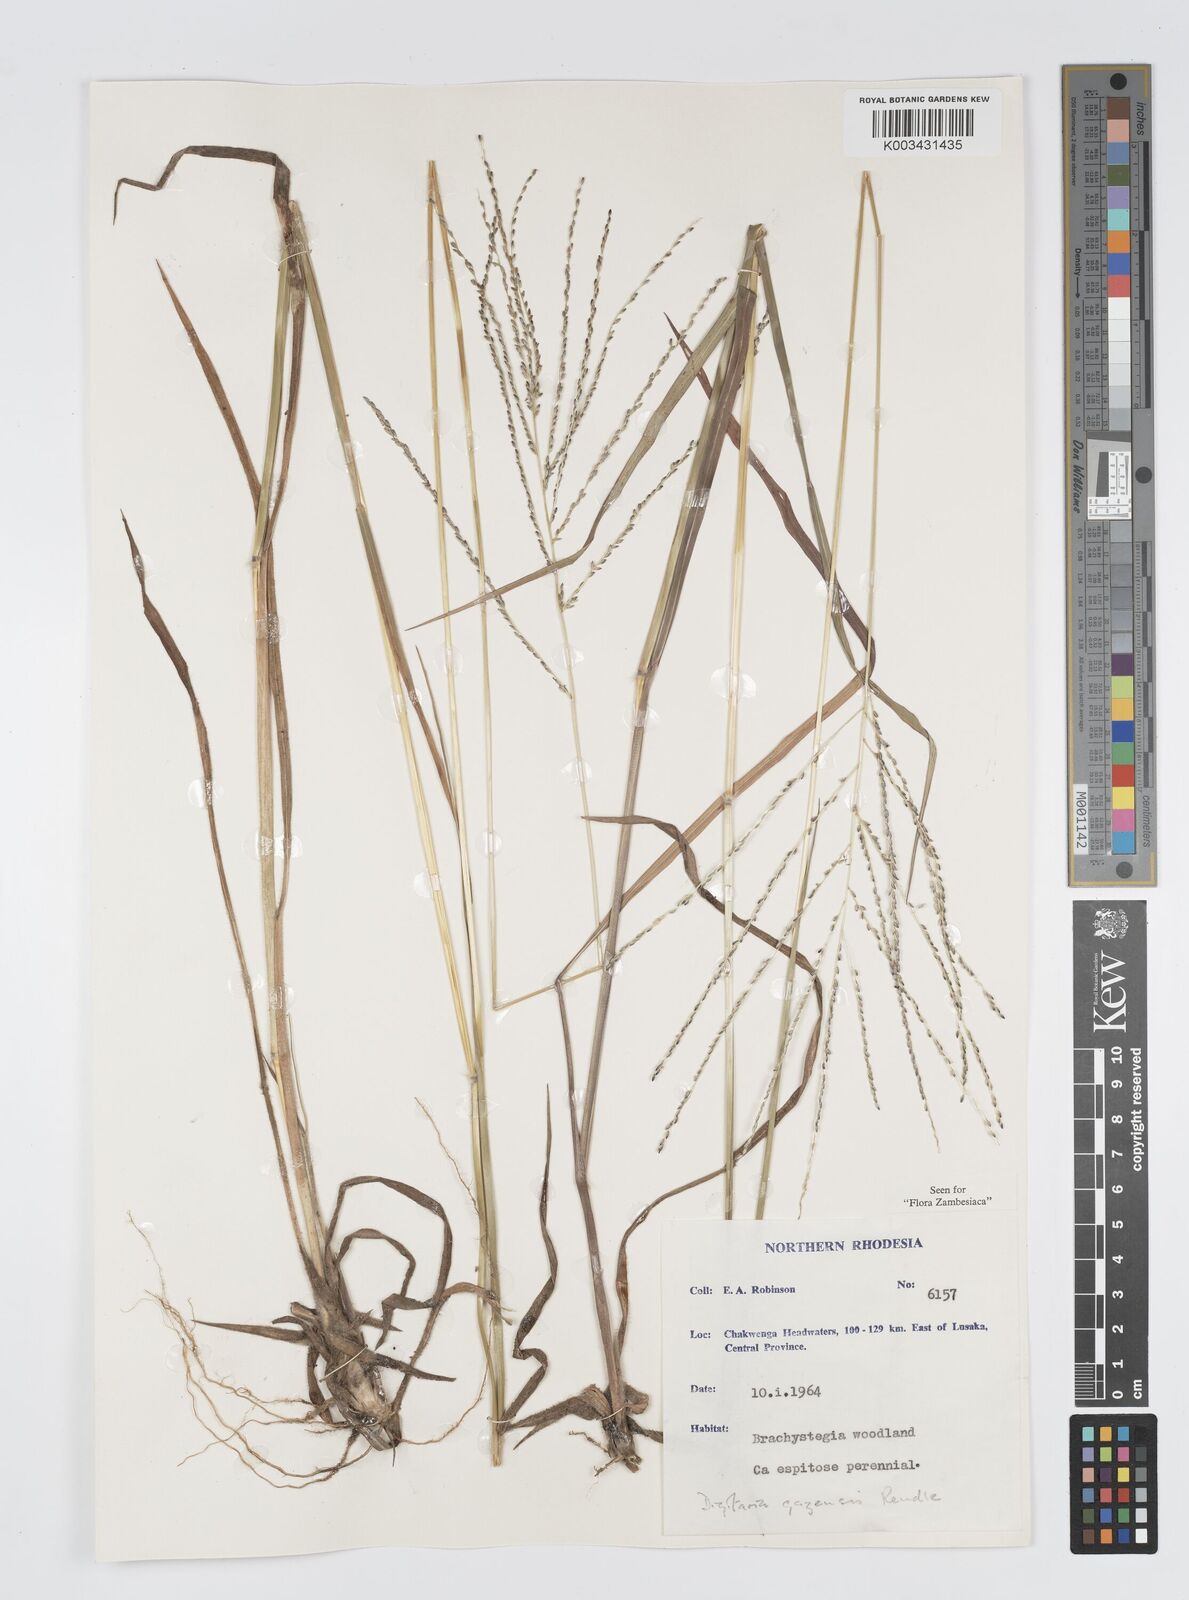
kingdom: Plantae
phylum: Tracheophyta
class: Liliopsida
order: Poales
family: Poaceae
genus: Digitaria
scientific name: Digitaria gazensis
